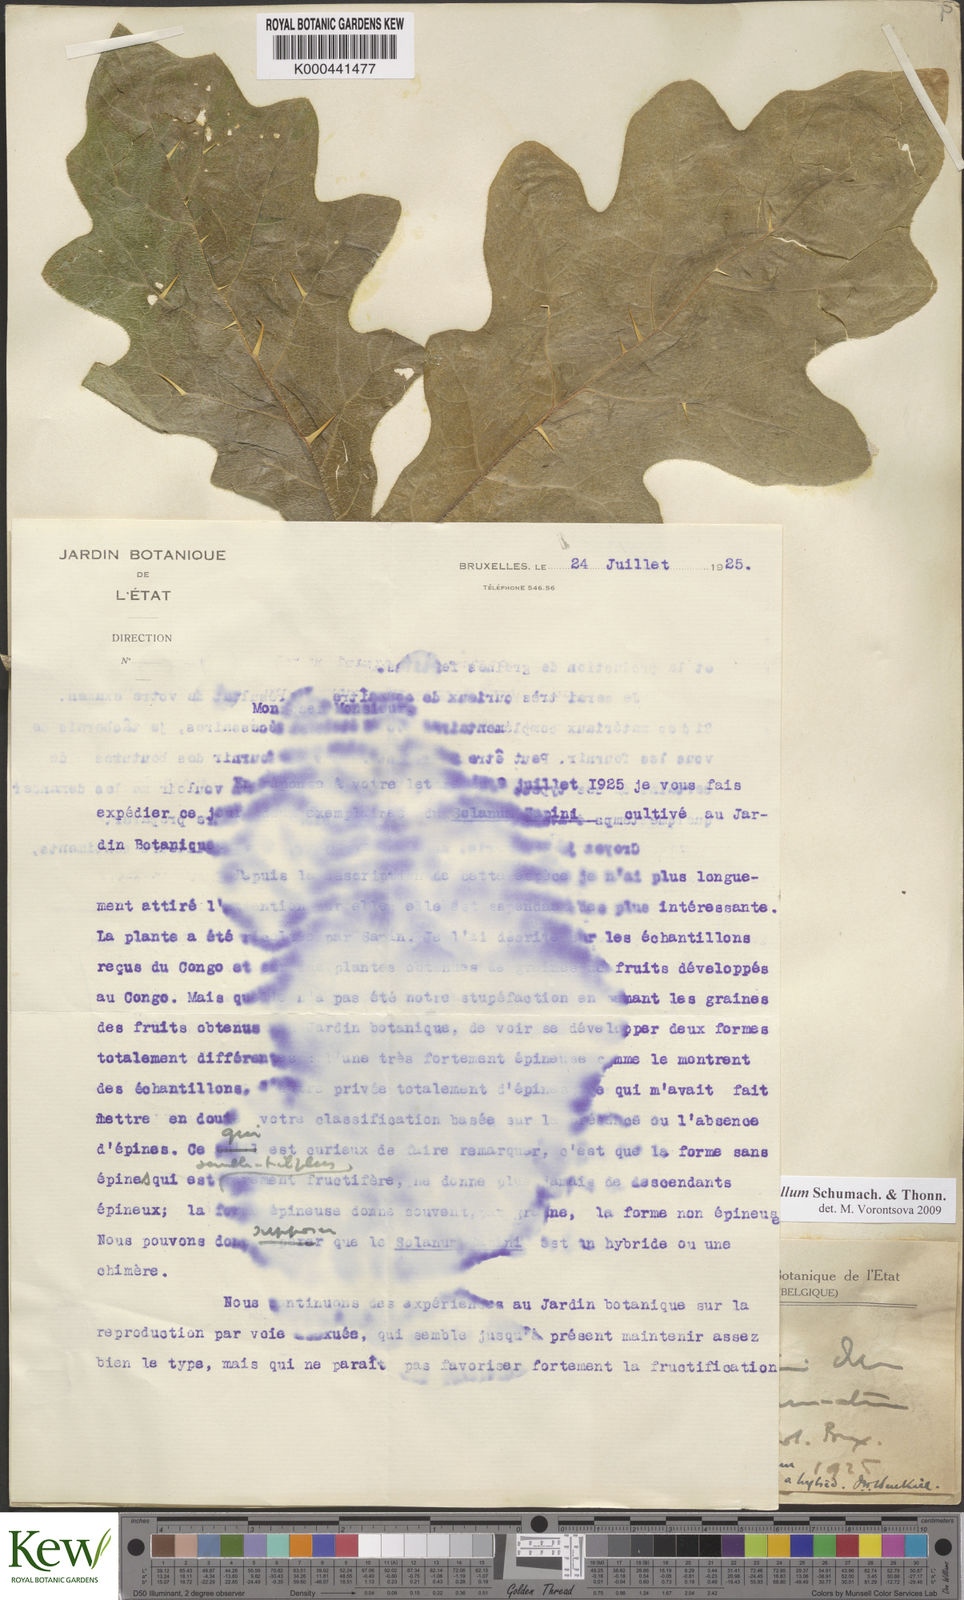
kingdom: Plantae
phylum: Tracheophyta
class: Magnoliopsida
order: Solanales
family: Solanaceae
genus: Solanum
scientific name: Solanum dasyphyllum
